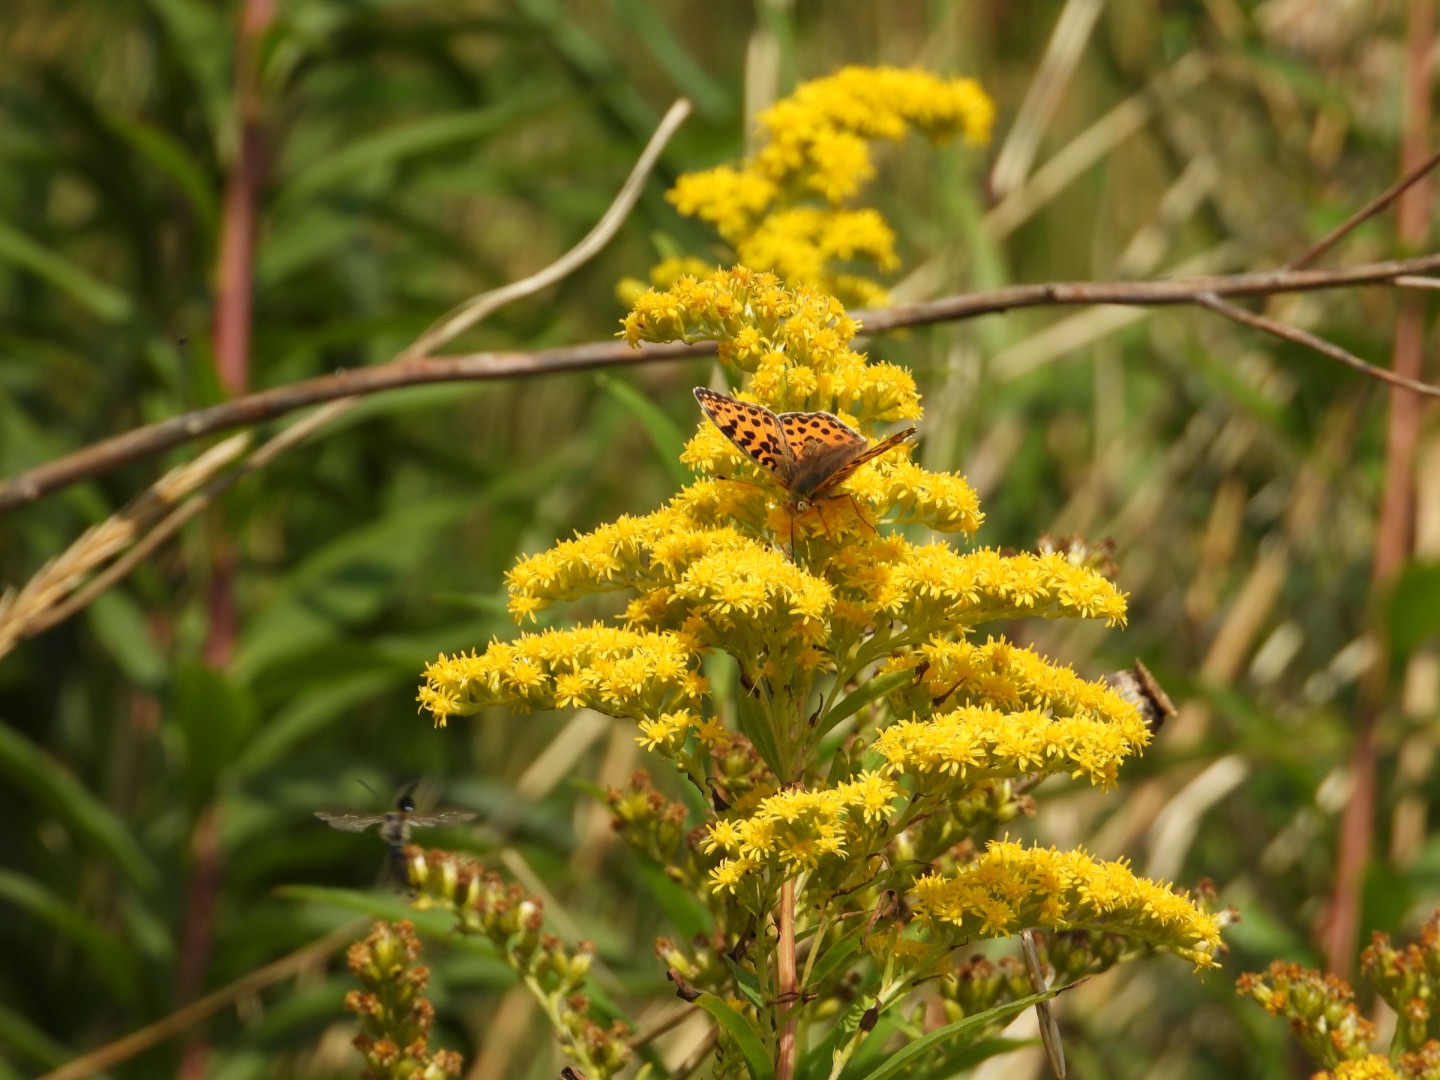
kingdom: Animalia
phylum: Arthropoda
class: Insecta
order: Lepidoptera
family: Nymphalidae
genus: Issoria
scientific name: Issoria lathonia
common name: Storplettet perlemorsommerfugl
